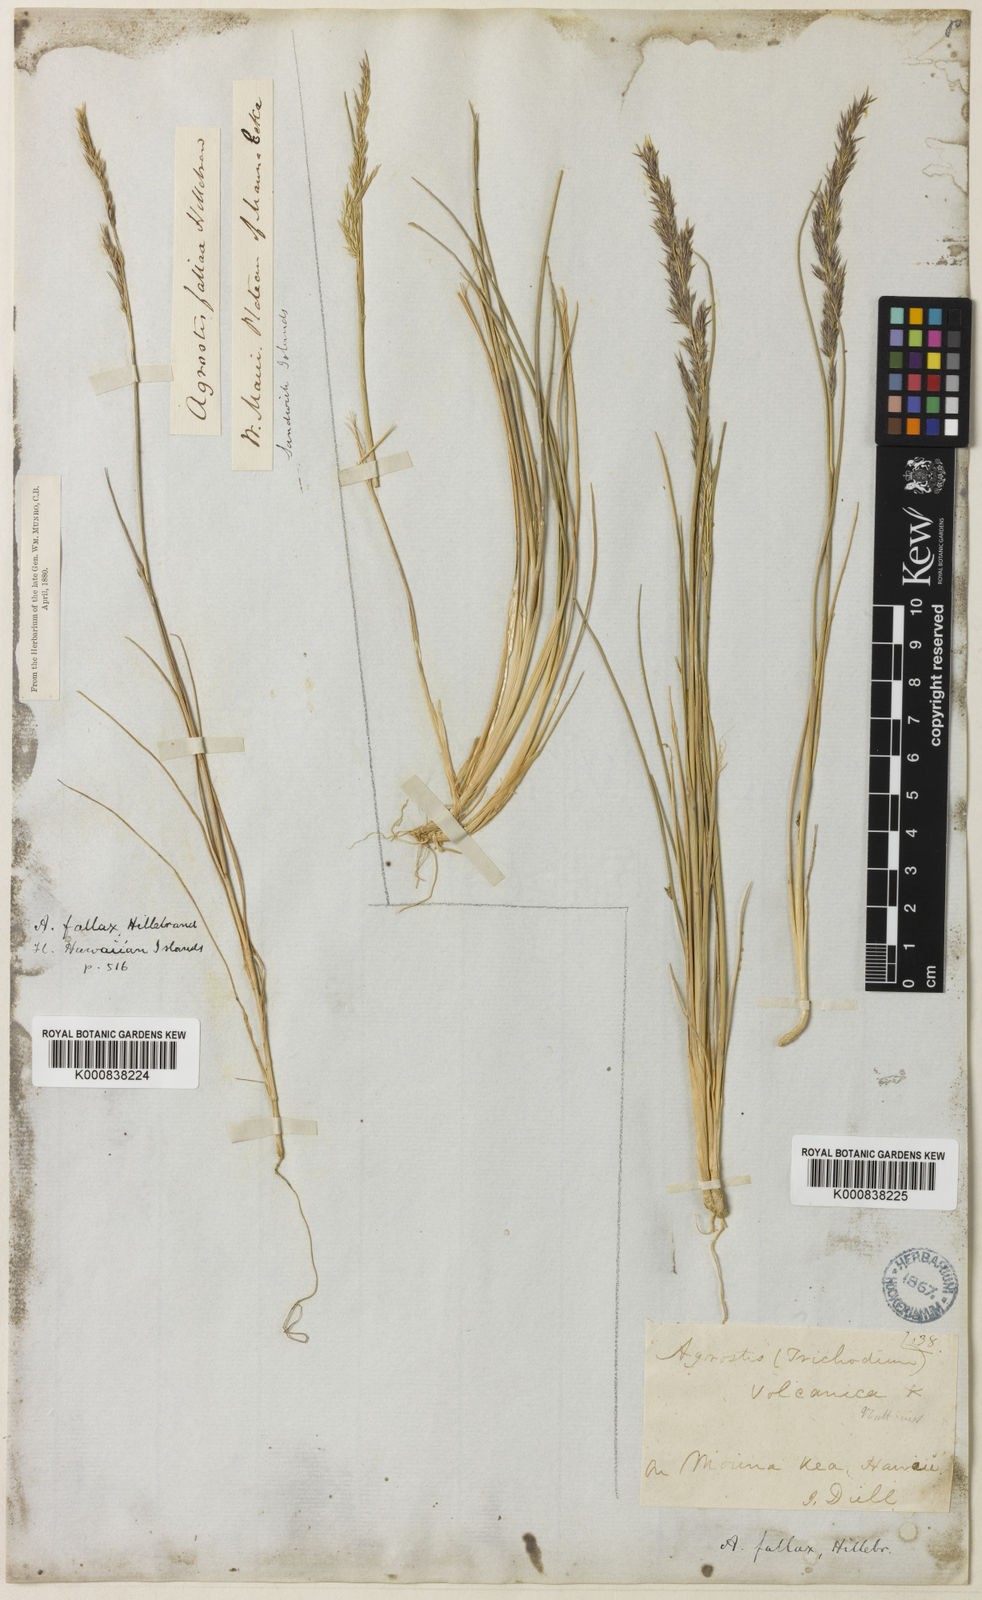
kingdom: Plantae
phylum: Tracheophyta
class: Liliopsida
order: Poales
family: Poaceae
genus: Agrostis
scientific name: Agrostis sandwicensis
